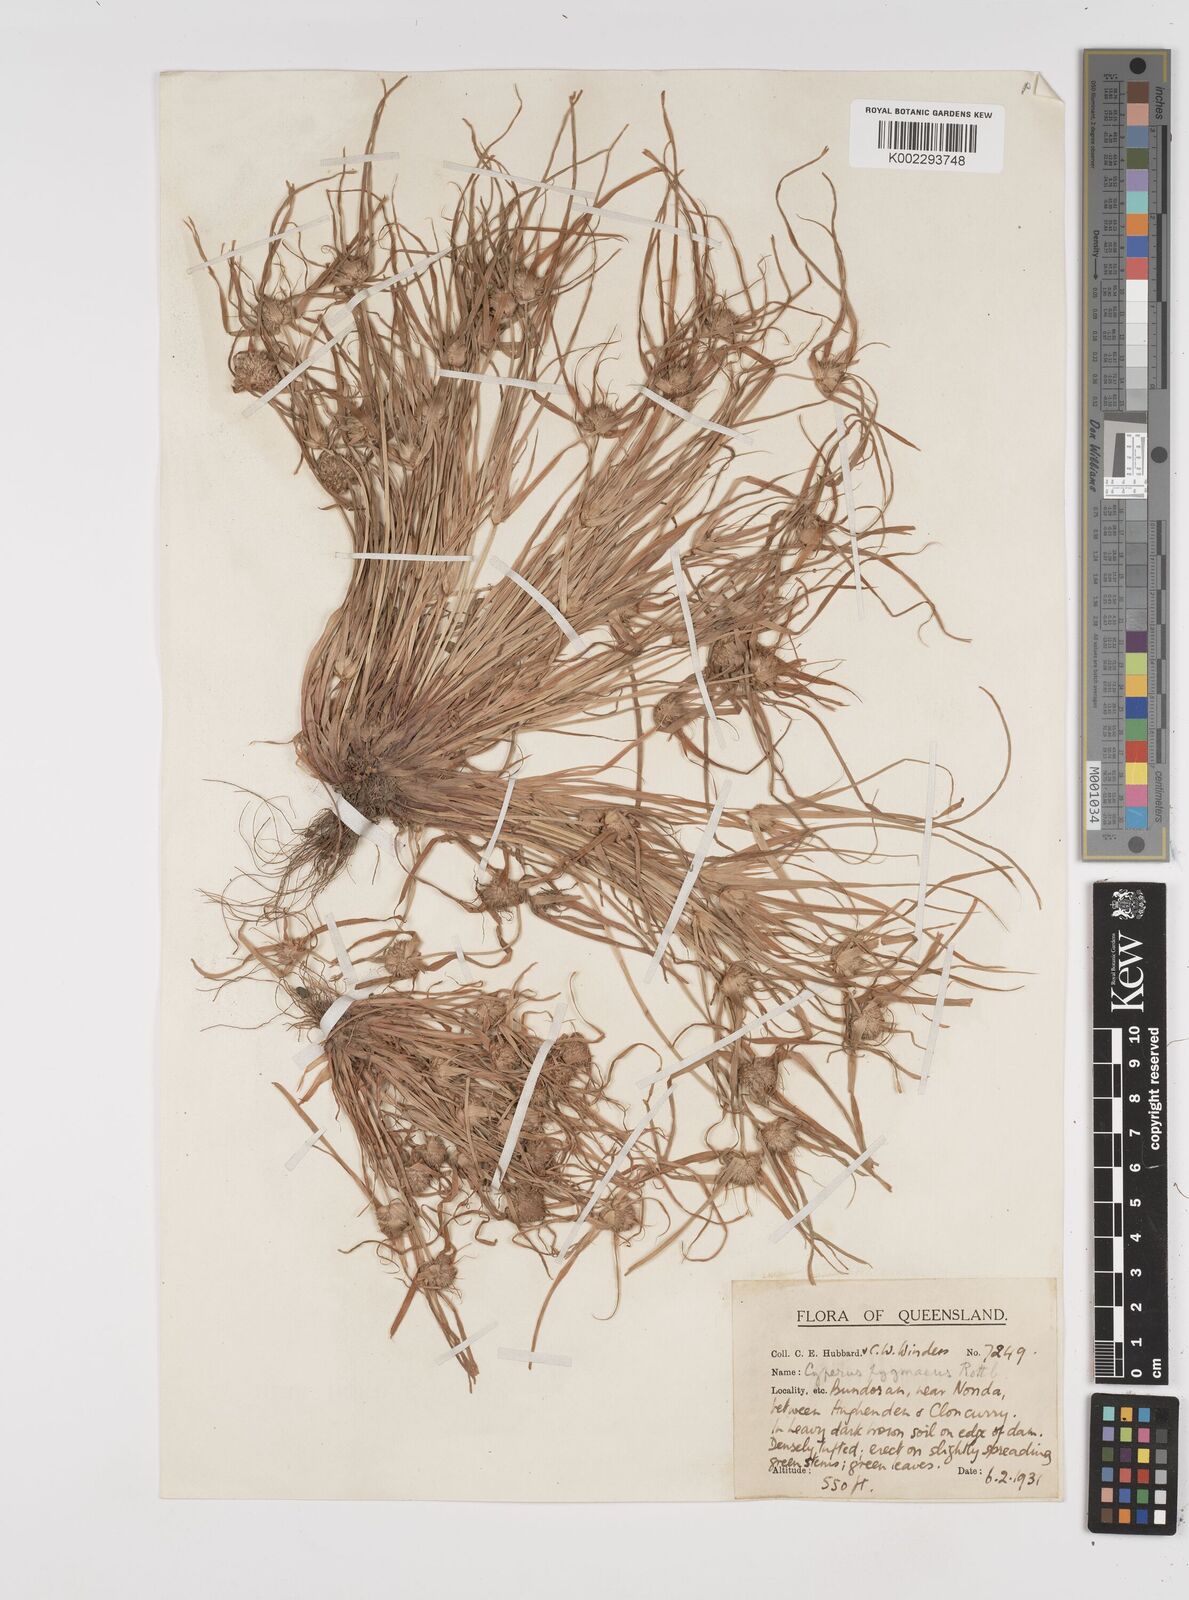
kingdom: Plantae
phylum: Tracheophyta
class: Liliopsida
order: Poales
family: Cyperaceae
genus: Cyperus
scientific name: Cyperus michelianus
